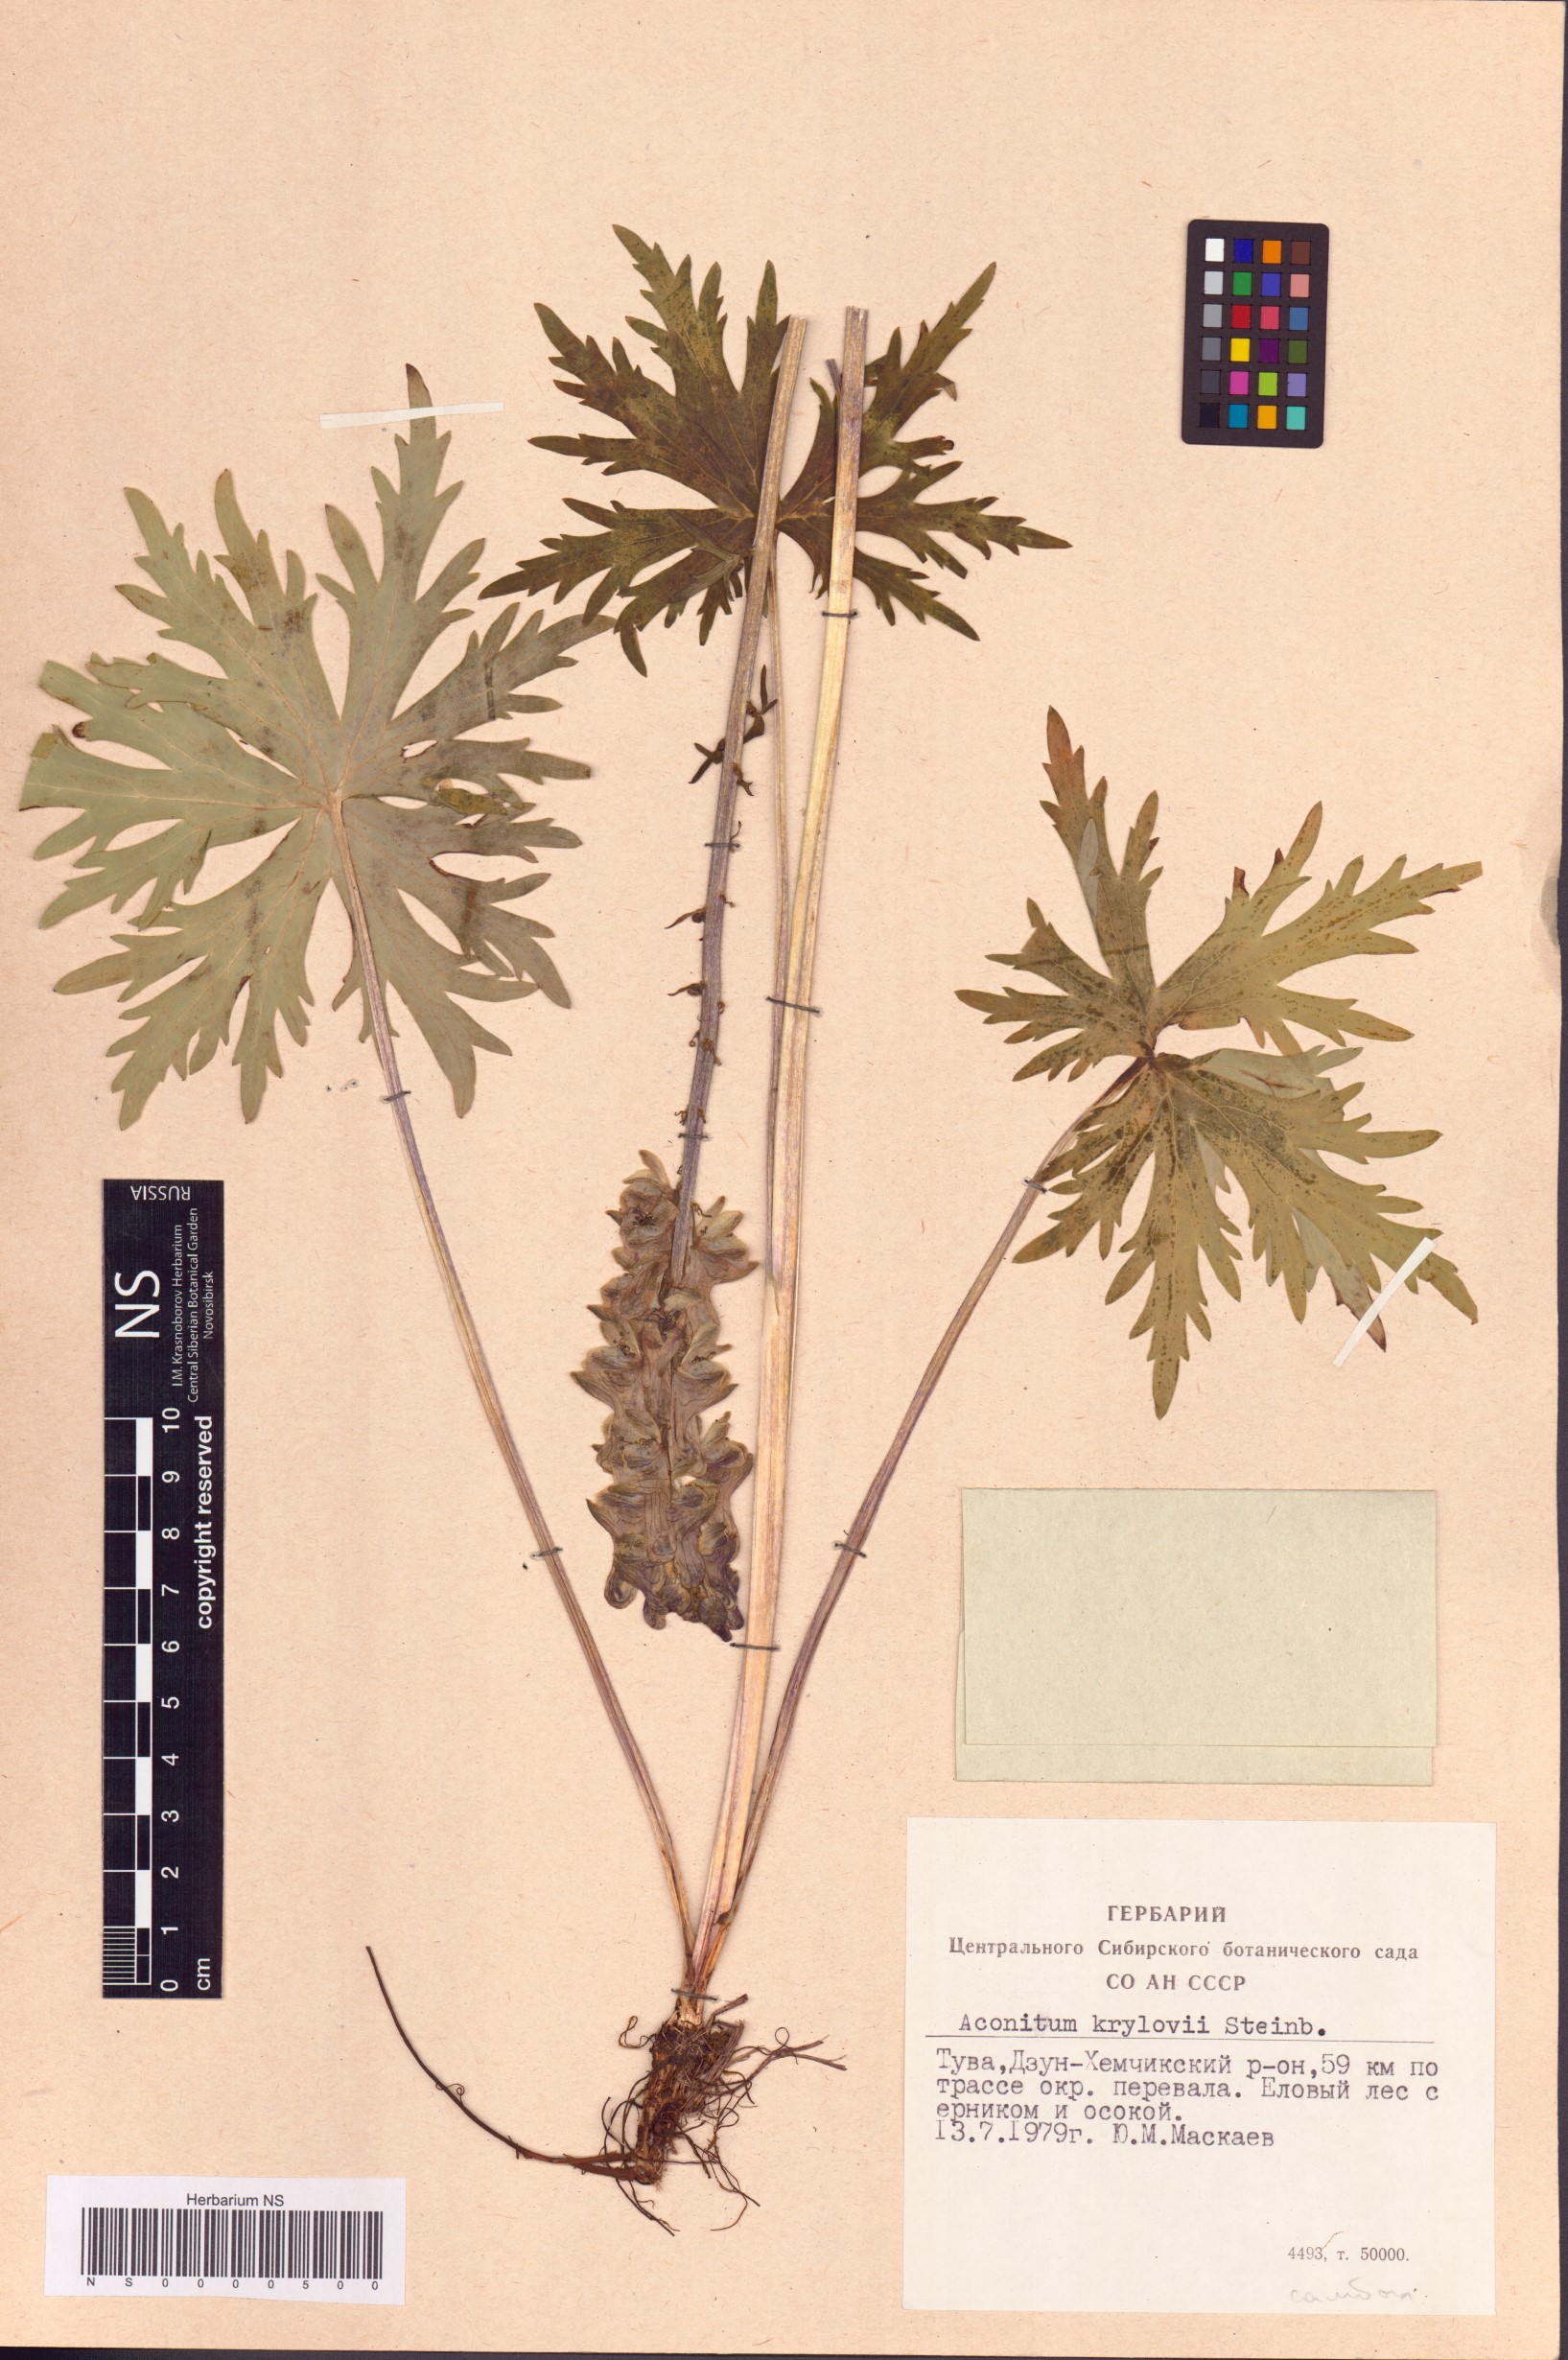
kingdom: Plantae
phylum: Tracheophyta
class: Magnoliopsida
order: Ranunculales
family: Ranunculaceae
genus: Aconitum
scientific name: Aconitum krylovii
